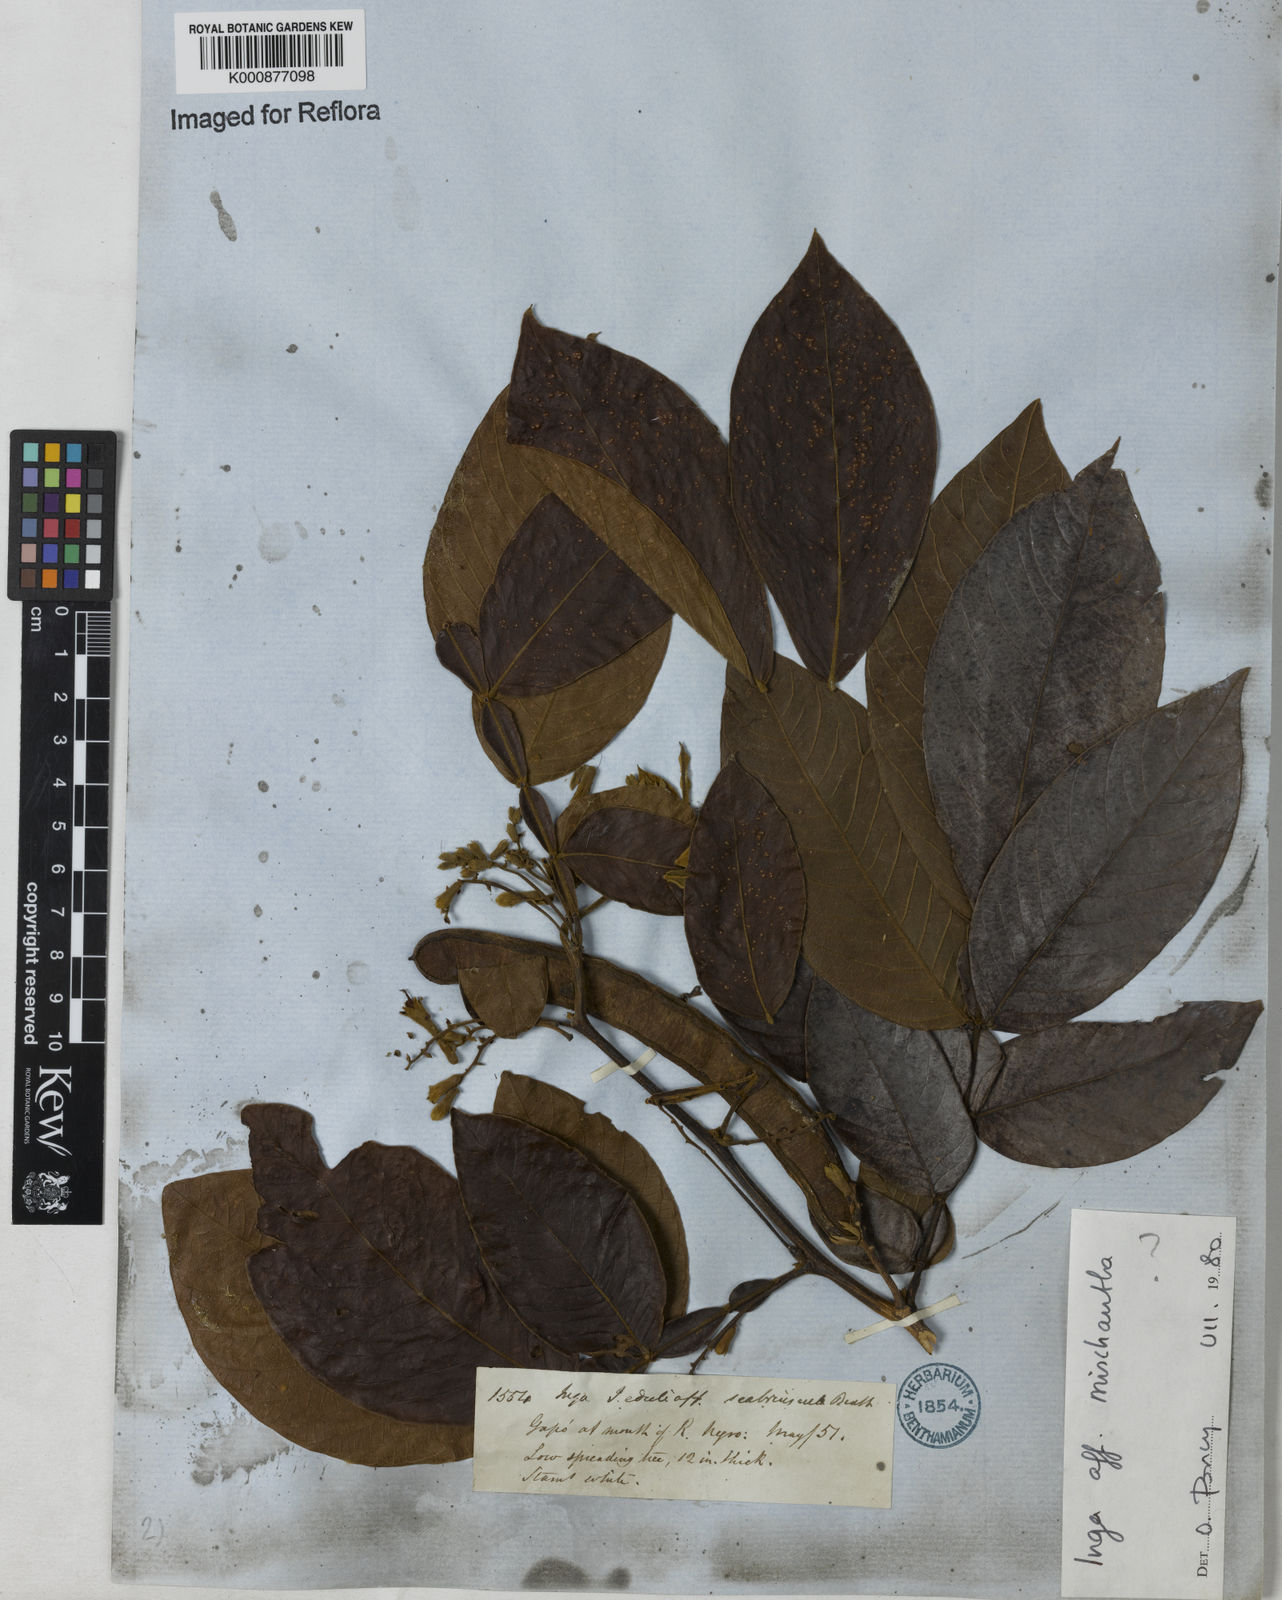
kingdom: Plantae
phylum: Tracheophyta
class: Magnoliopsida
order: Fabales
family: Fabaceae
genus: Inga
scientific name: Inga affinis
